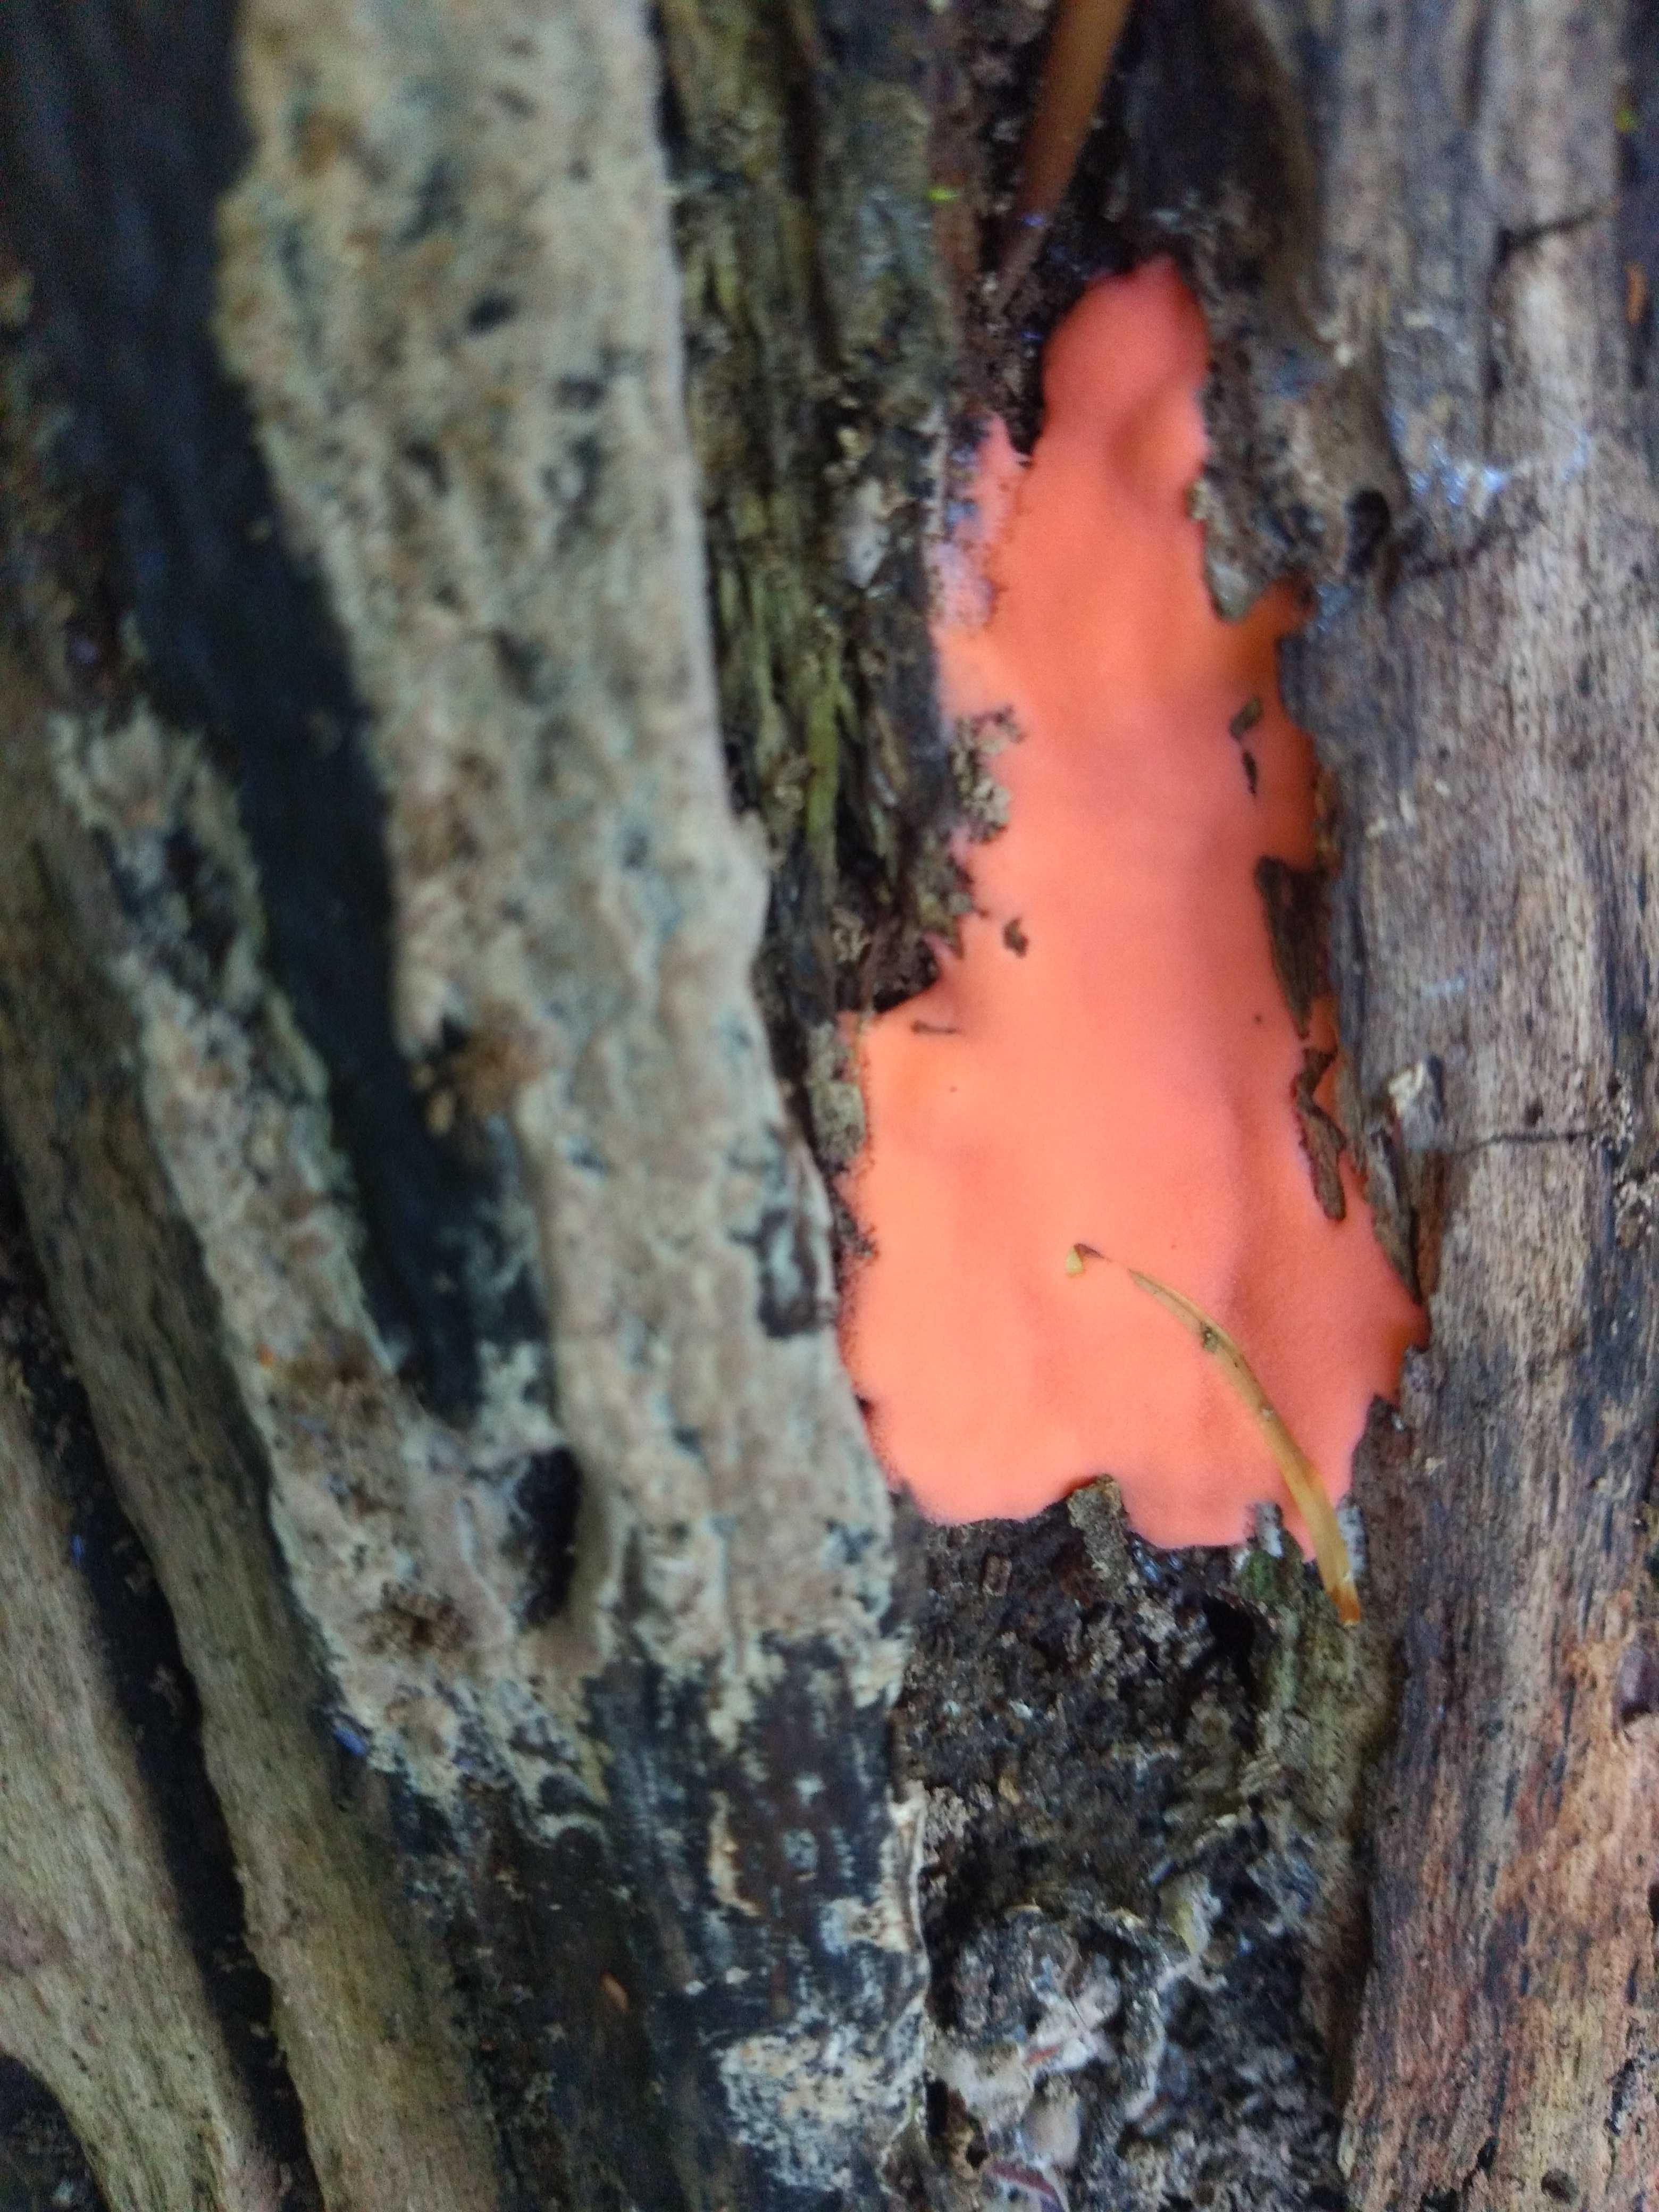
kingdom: Protozoa
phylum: Mycetozoa
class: Myxomycetes
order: Trichiales
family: Dictydiaethaliaceae
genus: Dictydiaethalium
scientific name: Dictydiaethalium plumbeum
